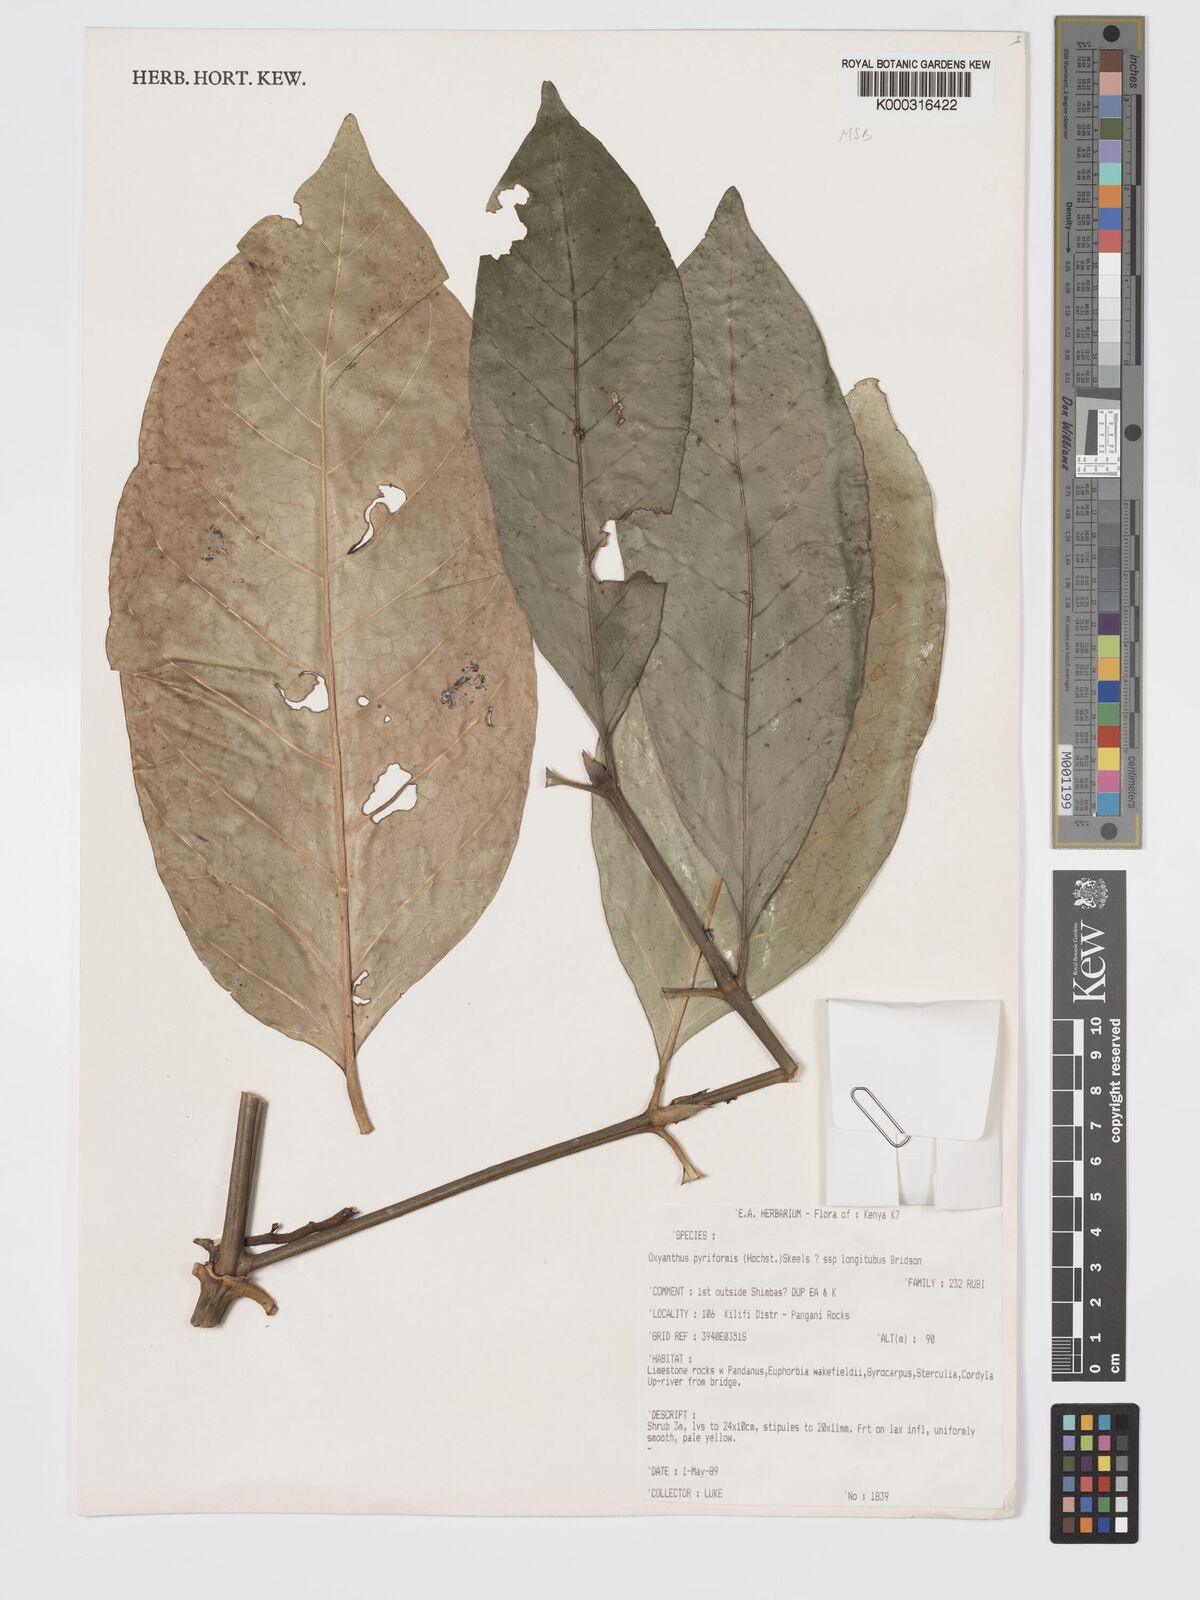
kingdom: Plantae
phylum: Tracheophyta
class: Magnoliopsida
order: Gentianales
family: Rubiaceae
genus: Oxyanthus
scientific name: Oxyanthus pyriformis
